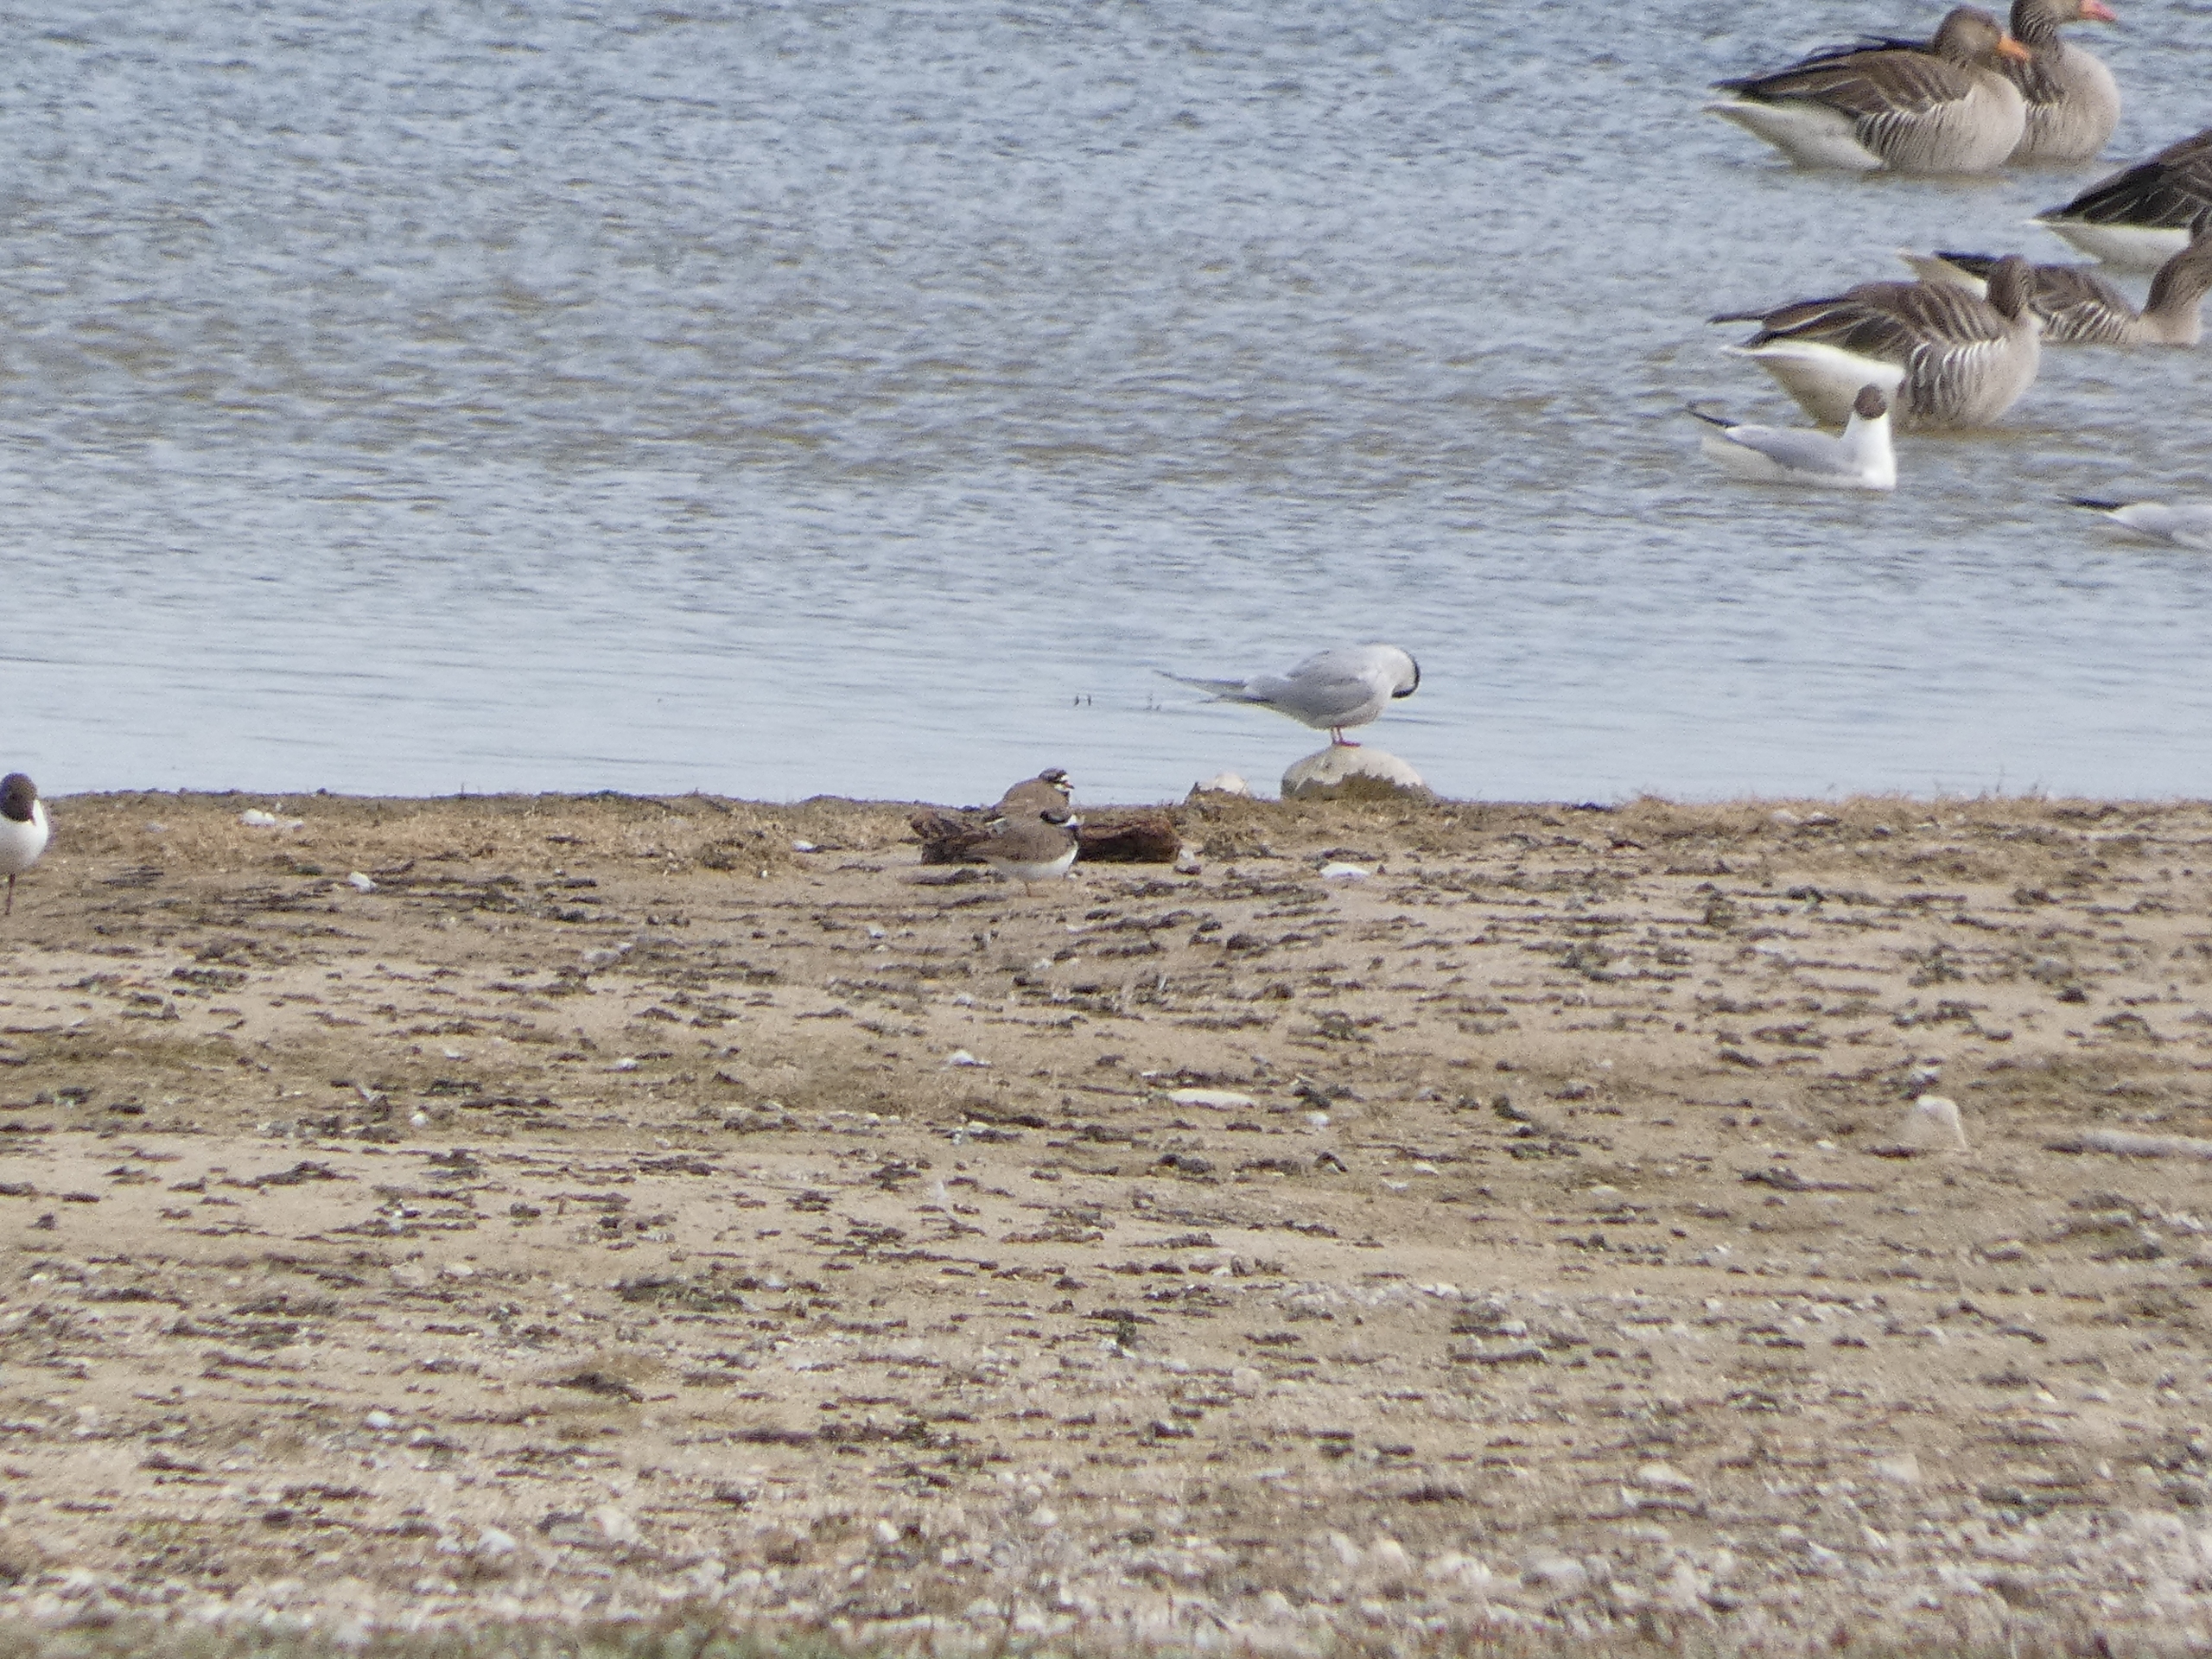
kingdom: Animalia
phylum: Chordata
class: Aves
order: Charadriiformes
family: Charadriidae
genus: Charadrius
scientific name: Charadrius hiaticula
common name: Stor præstekrave
